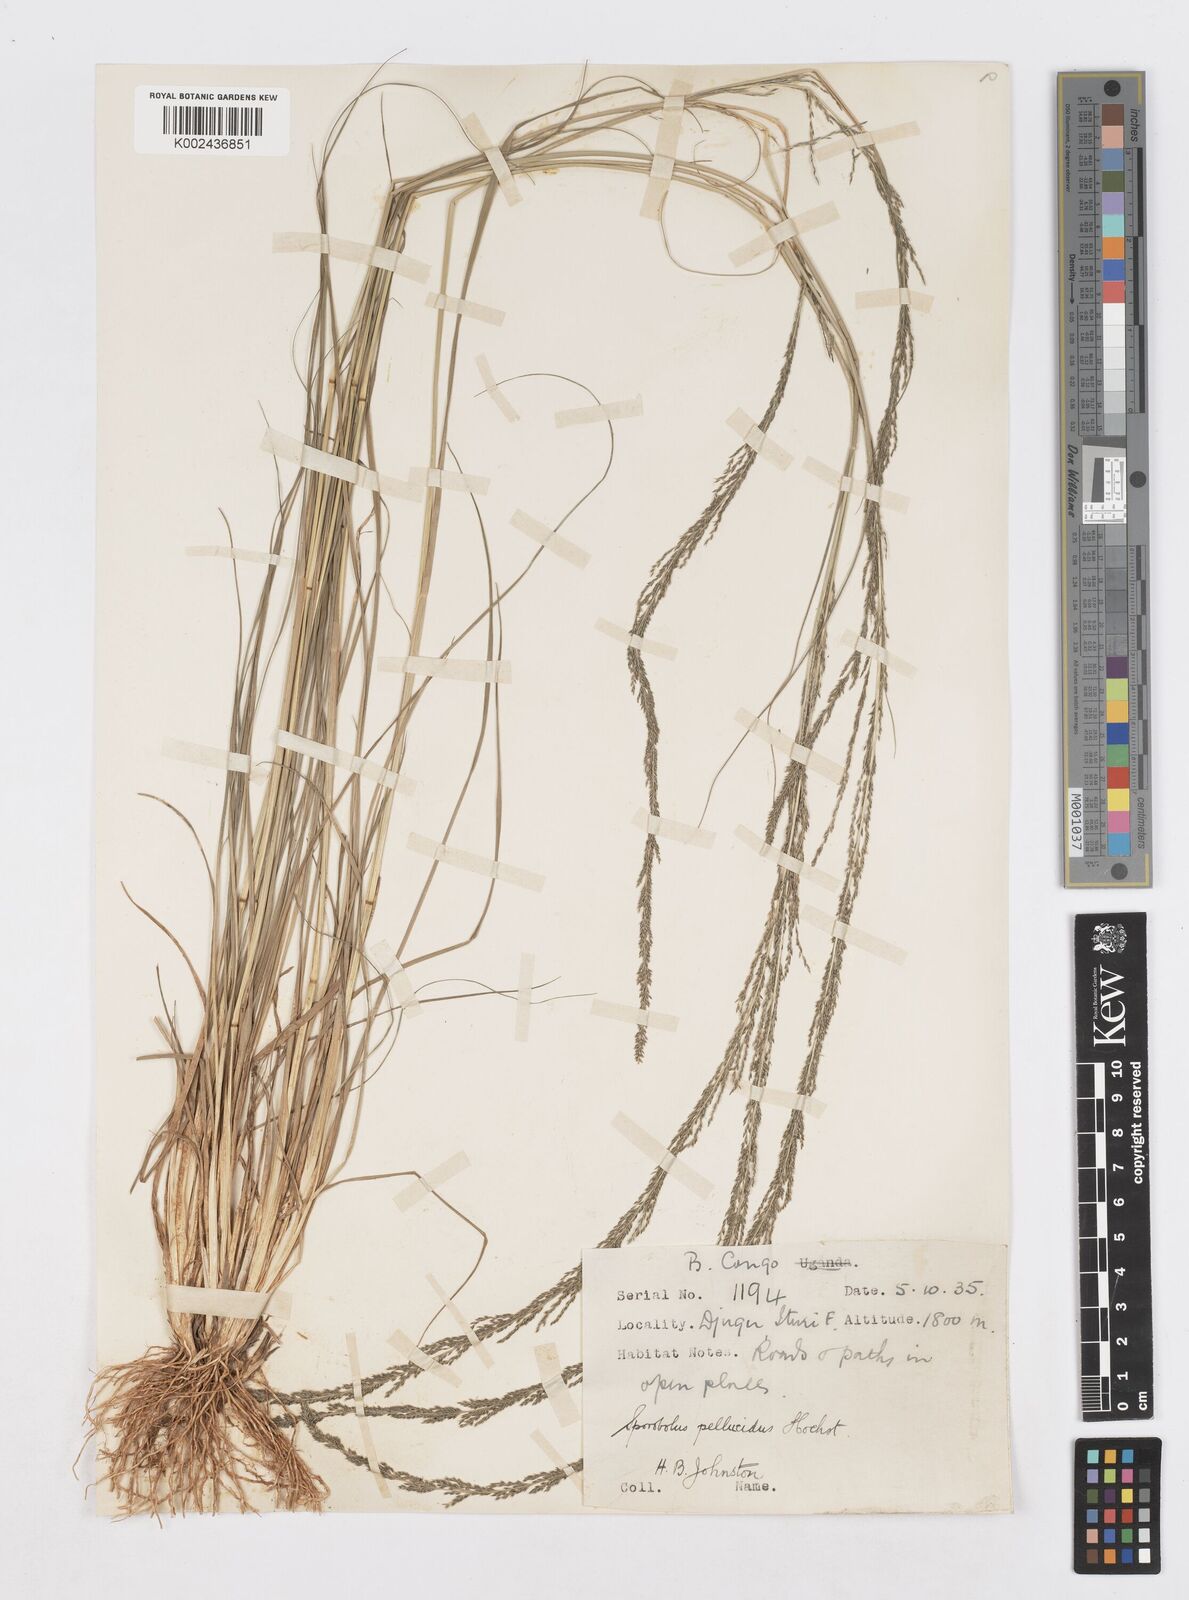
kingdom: Plantae
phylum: Tracheophyta
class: Liliopsida
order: Poales
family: Poaceae
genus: Sporobolus
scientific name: Sporobolus natalensis
